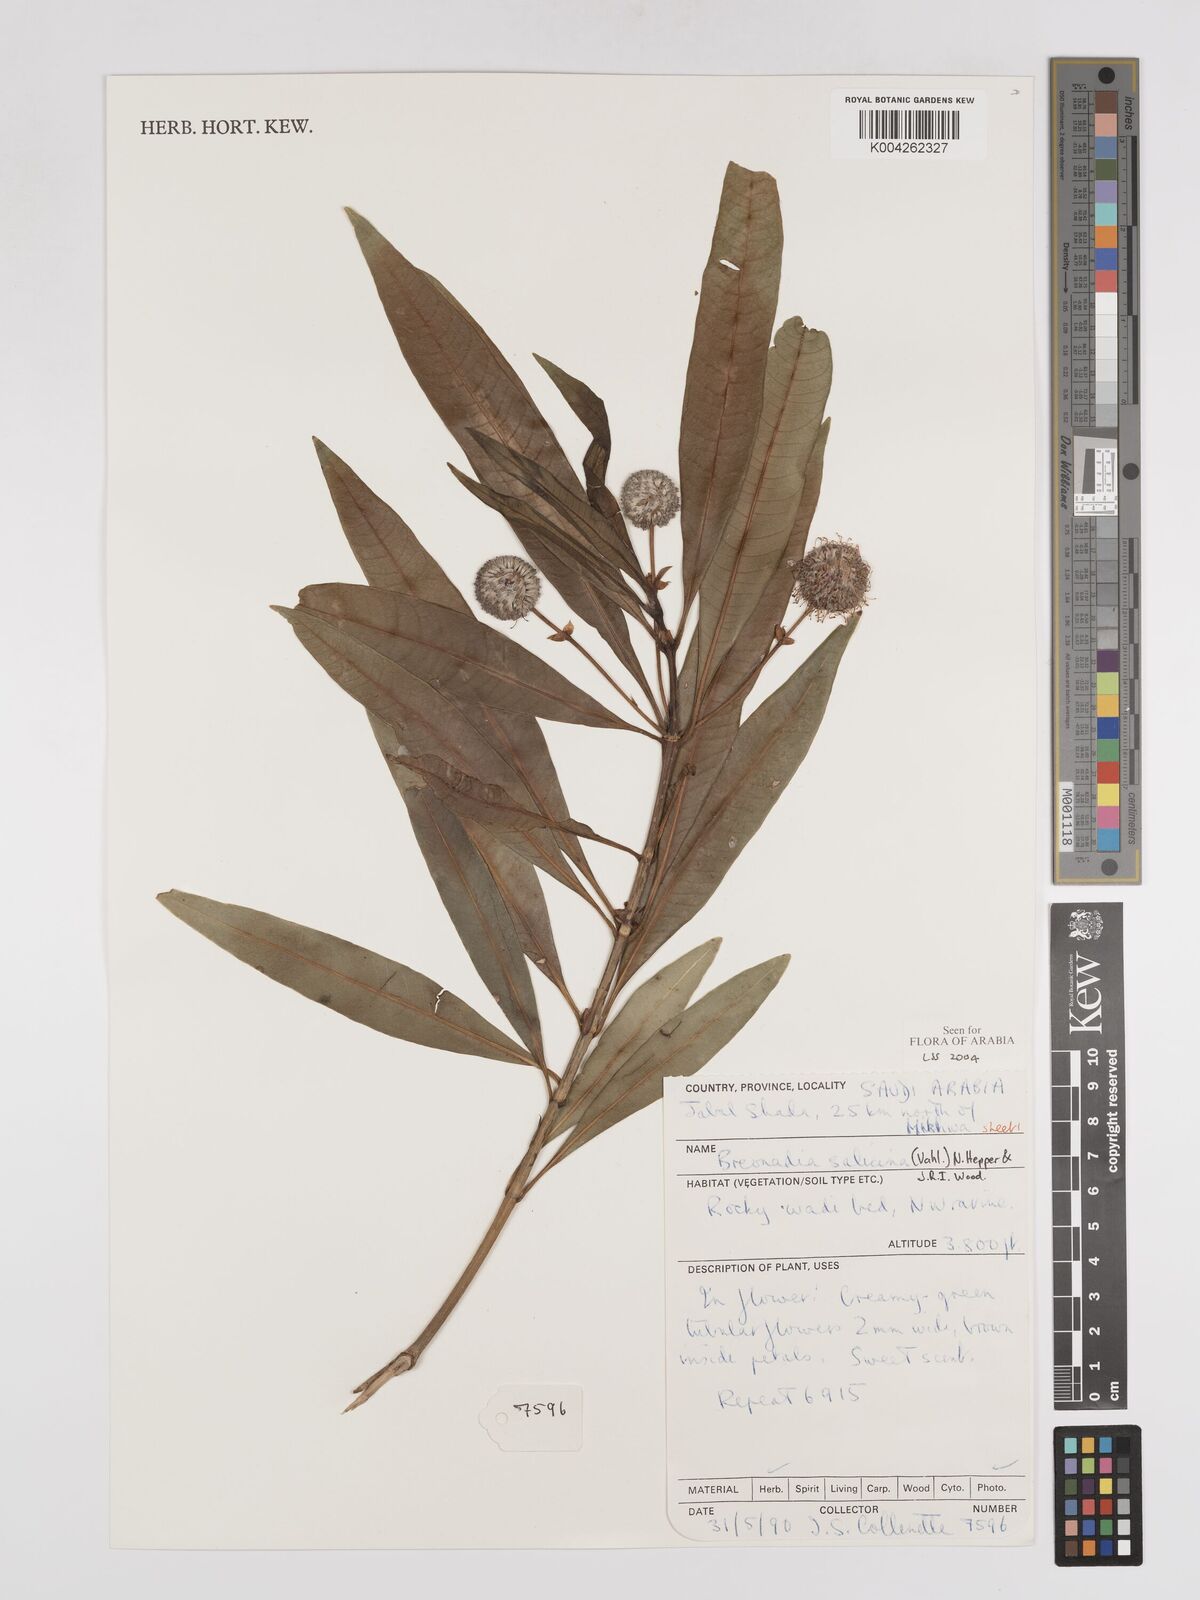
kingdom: Plantae
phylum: Tracheophyta
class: Magnoliopsida
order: Gentianales
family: Rubiaceae
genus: Breonadia
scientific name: Breonadia salicina
